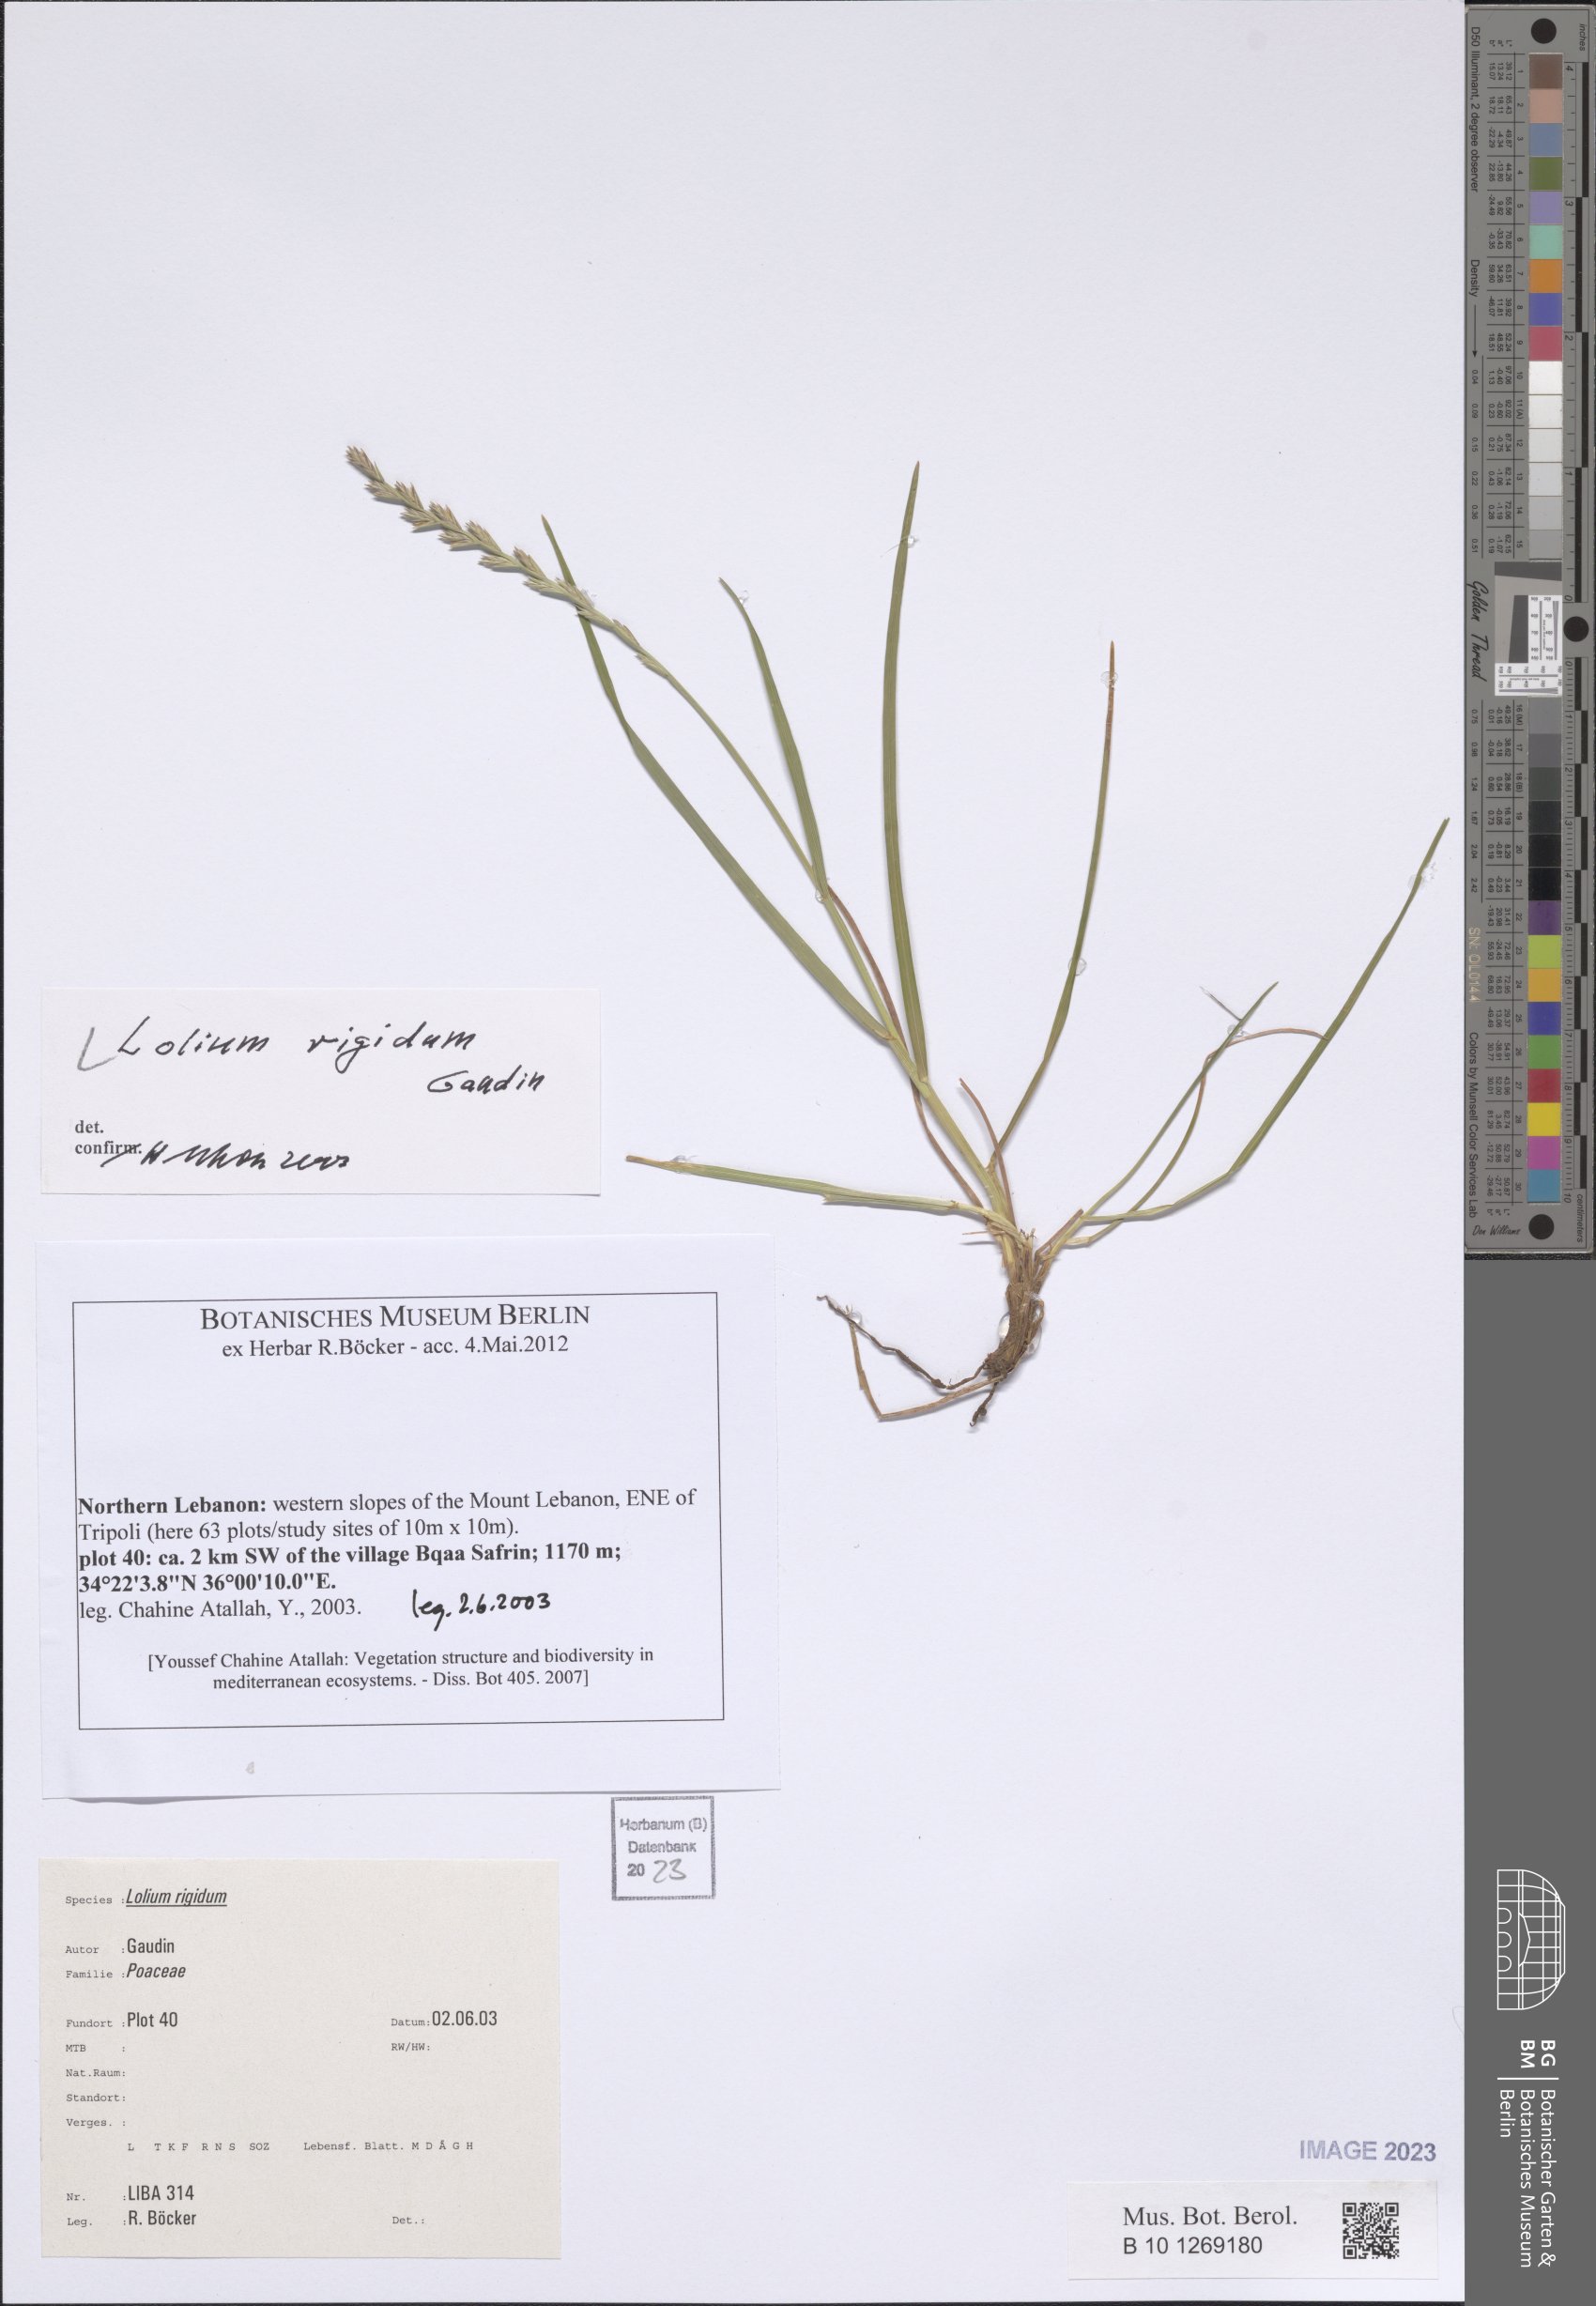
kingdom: Plantae
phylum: Tracheophyta
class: Liliopsida
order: Poales
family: Poaceae
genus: Lolium
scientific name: Lolium rigidum
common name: Wimmera ryegrass
